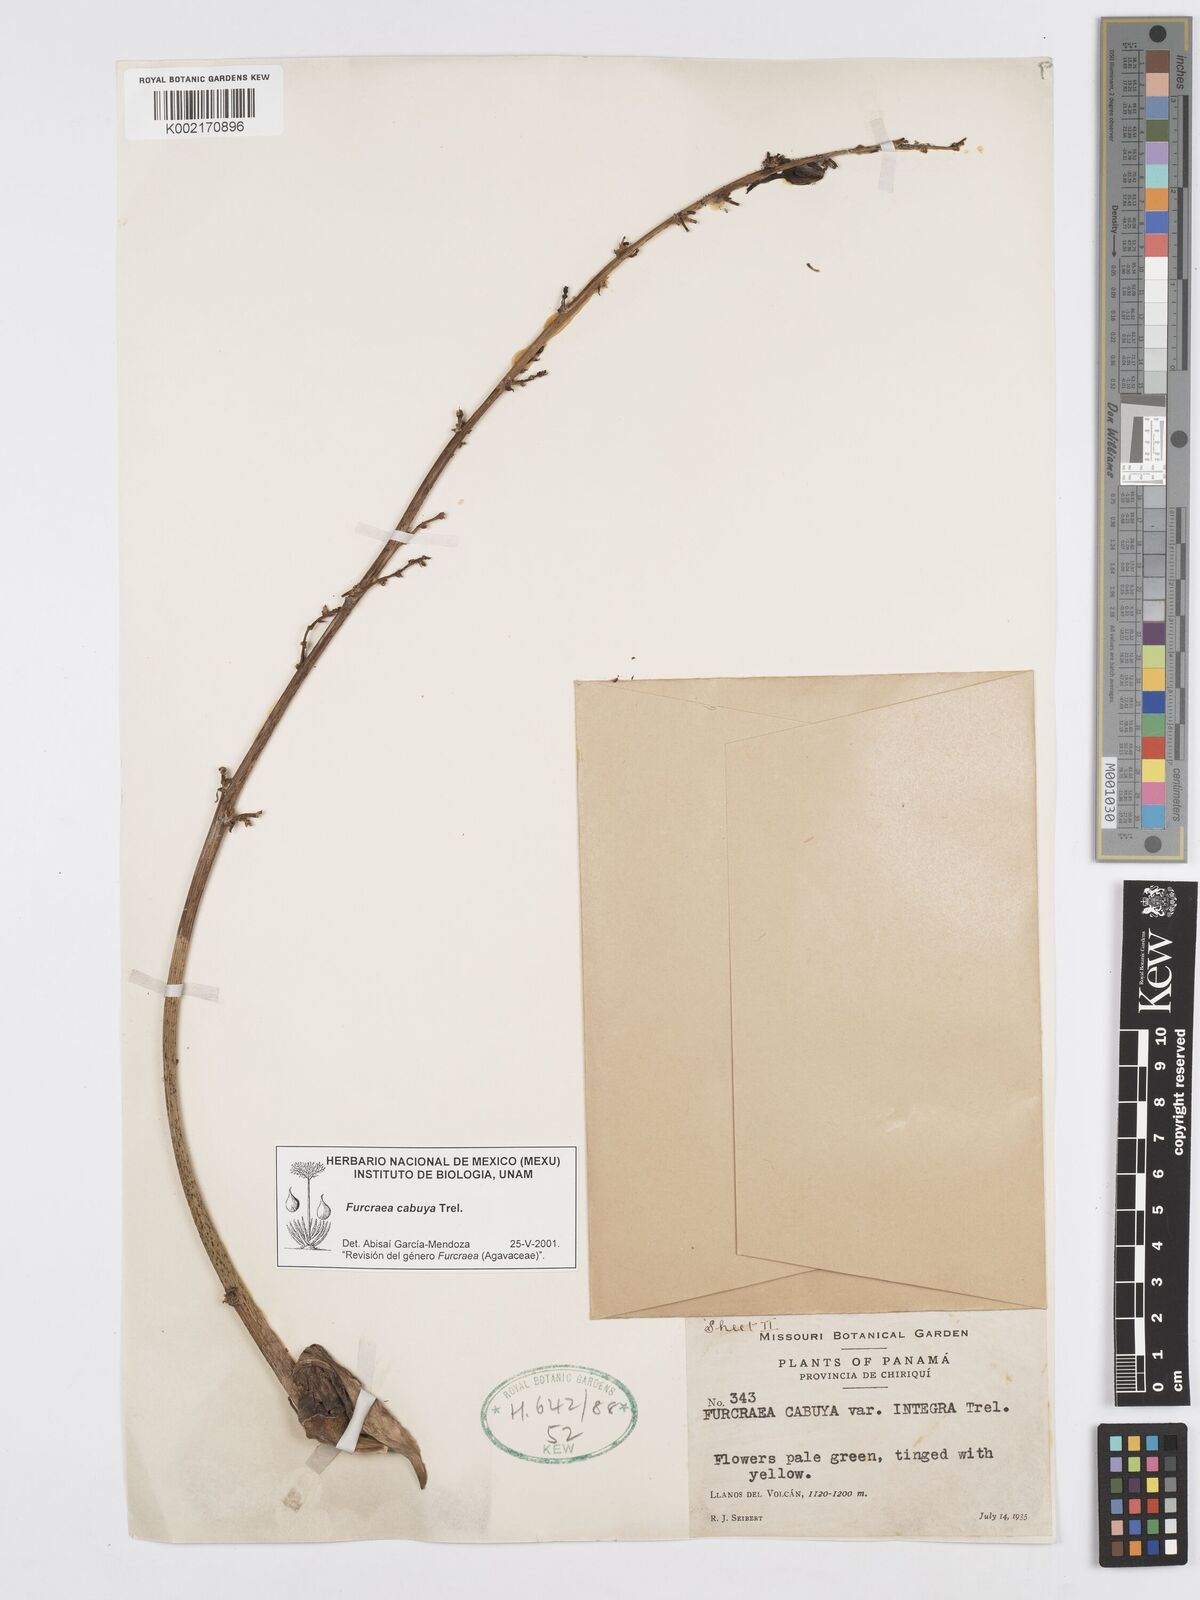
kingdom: Plantae
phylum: Tracheophyta
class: Liliopsida
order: Asparagales
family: Asparagaceae
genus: Furcraea
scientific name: Furcraea cabuya
